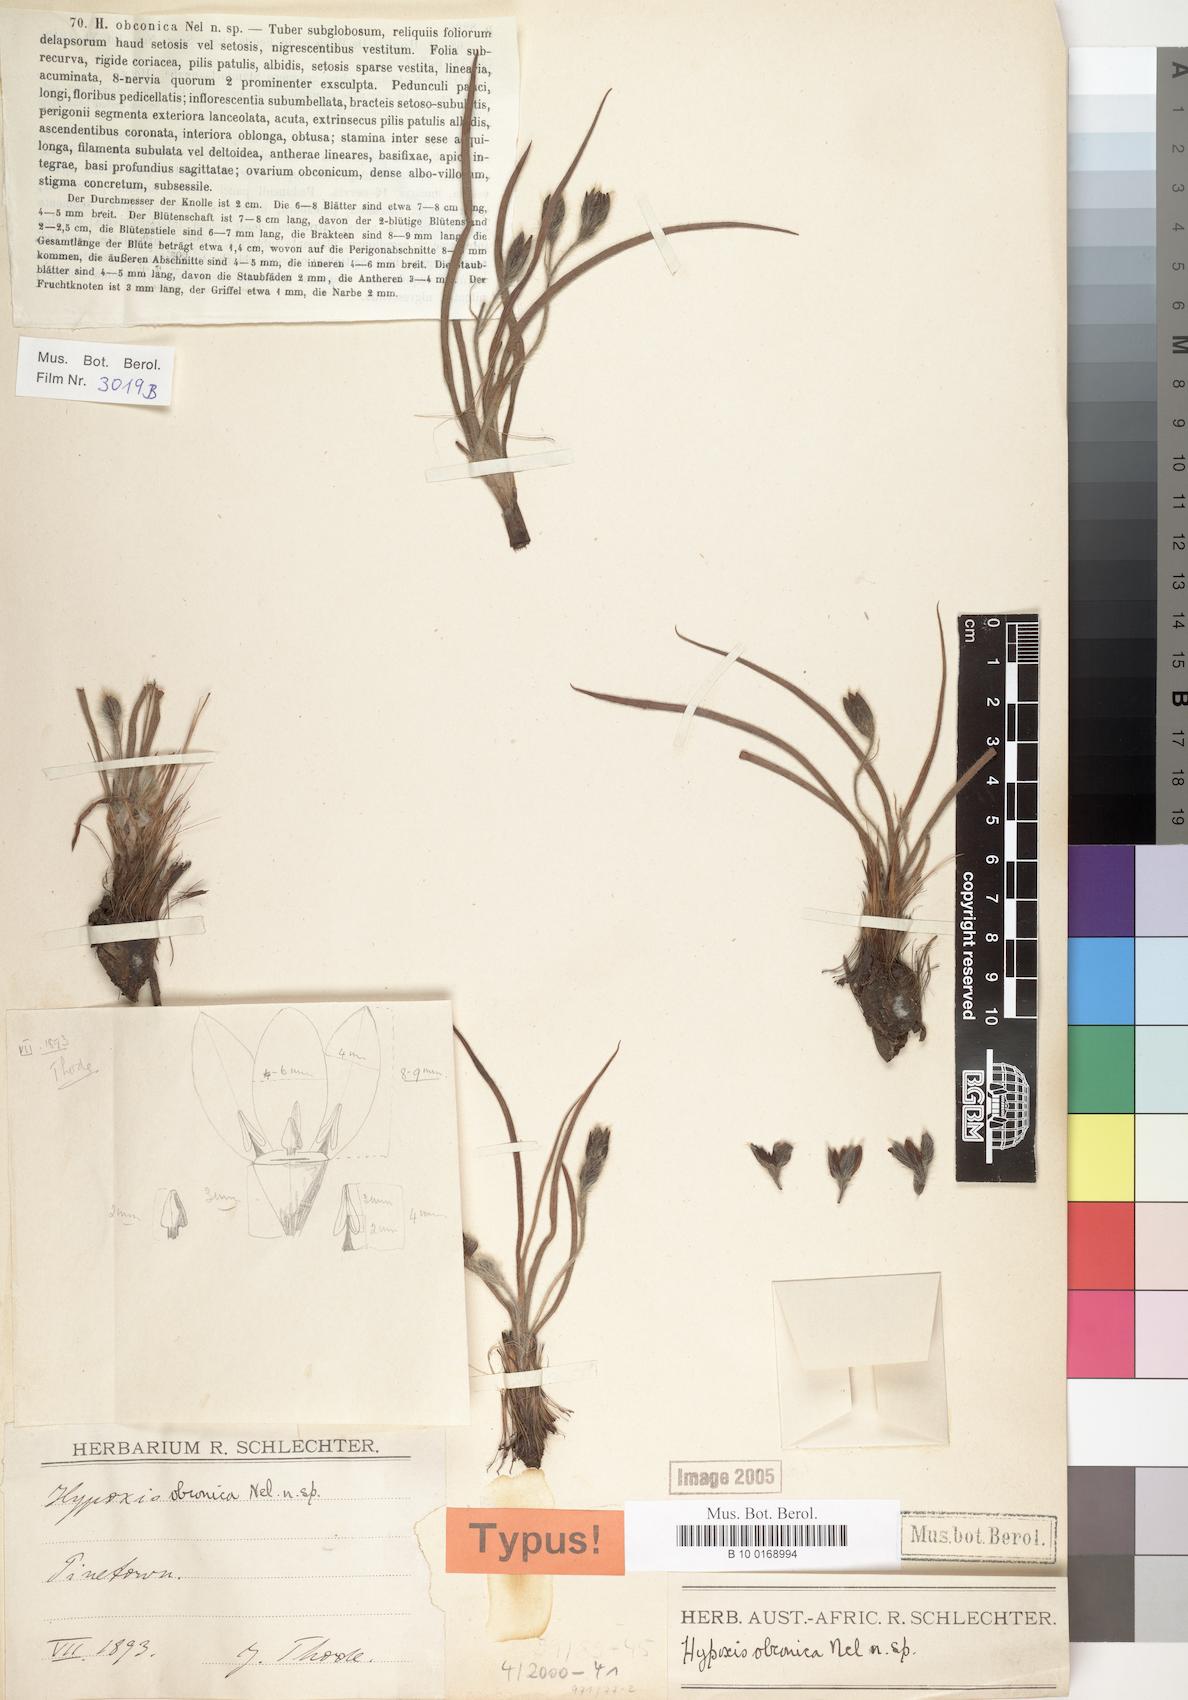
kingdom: Plantae
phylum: Tracheophyta
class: Liliopsida
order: Asparagales
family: Hypoxidaceae
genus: Hypoxis
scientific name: Hypoxis hemerocallidea
